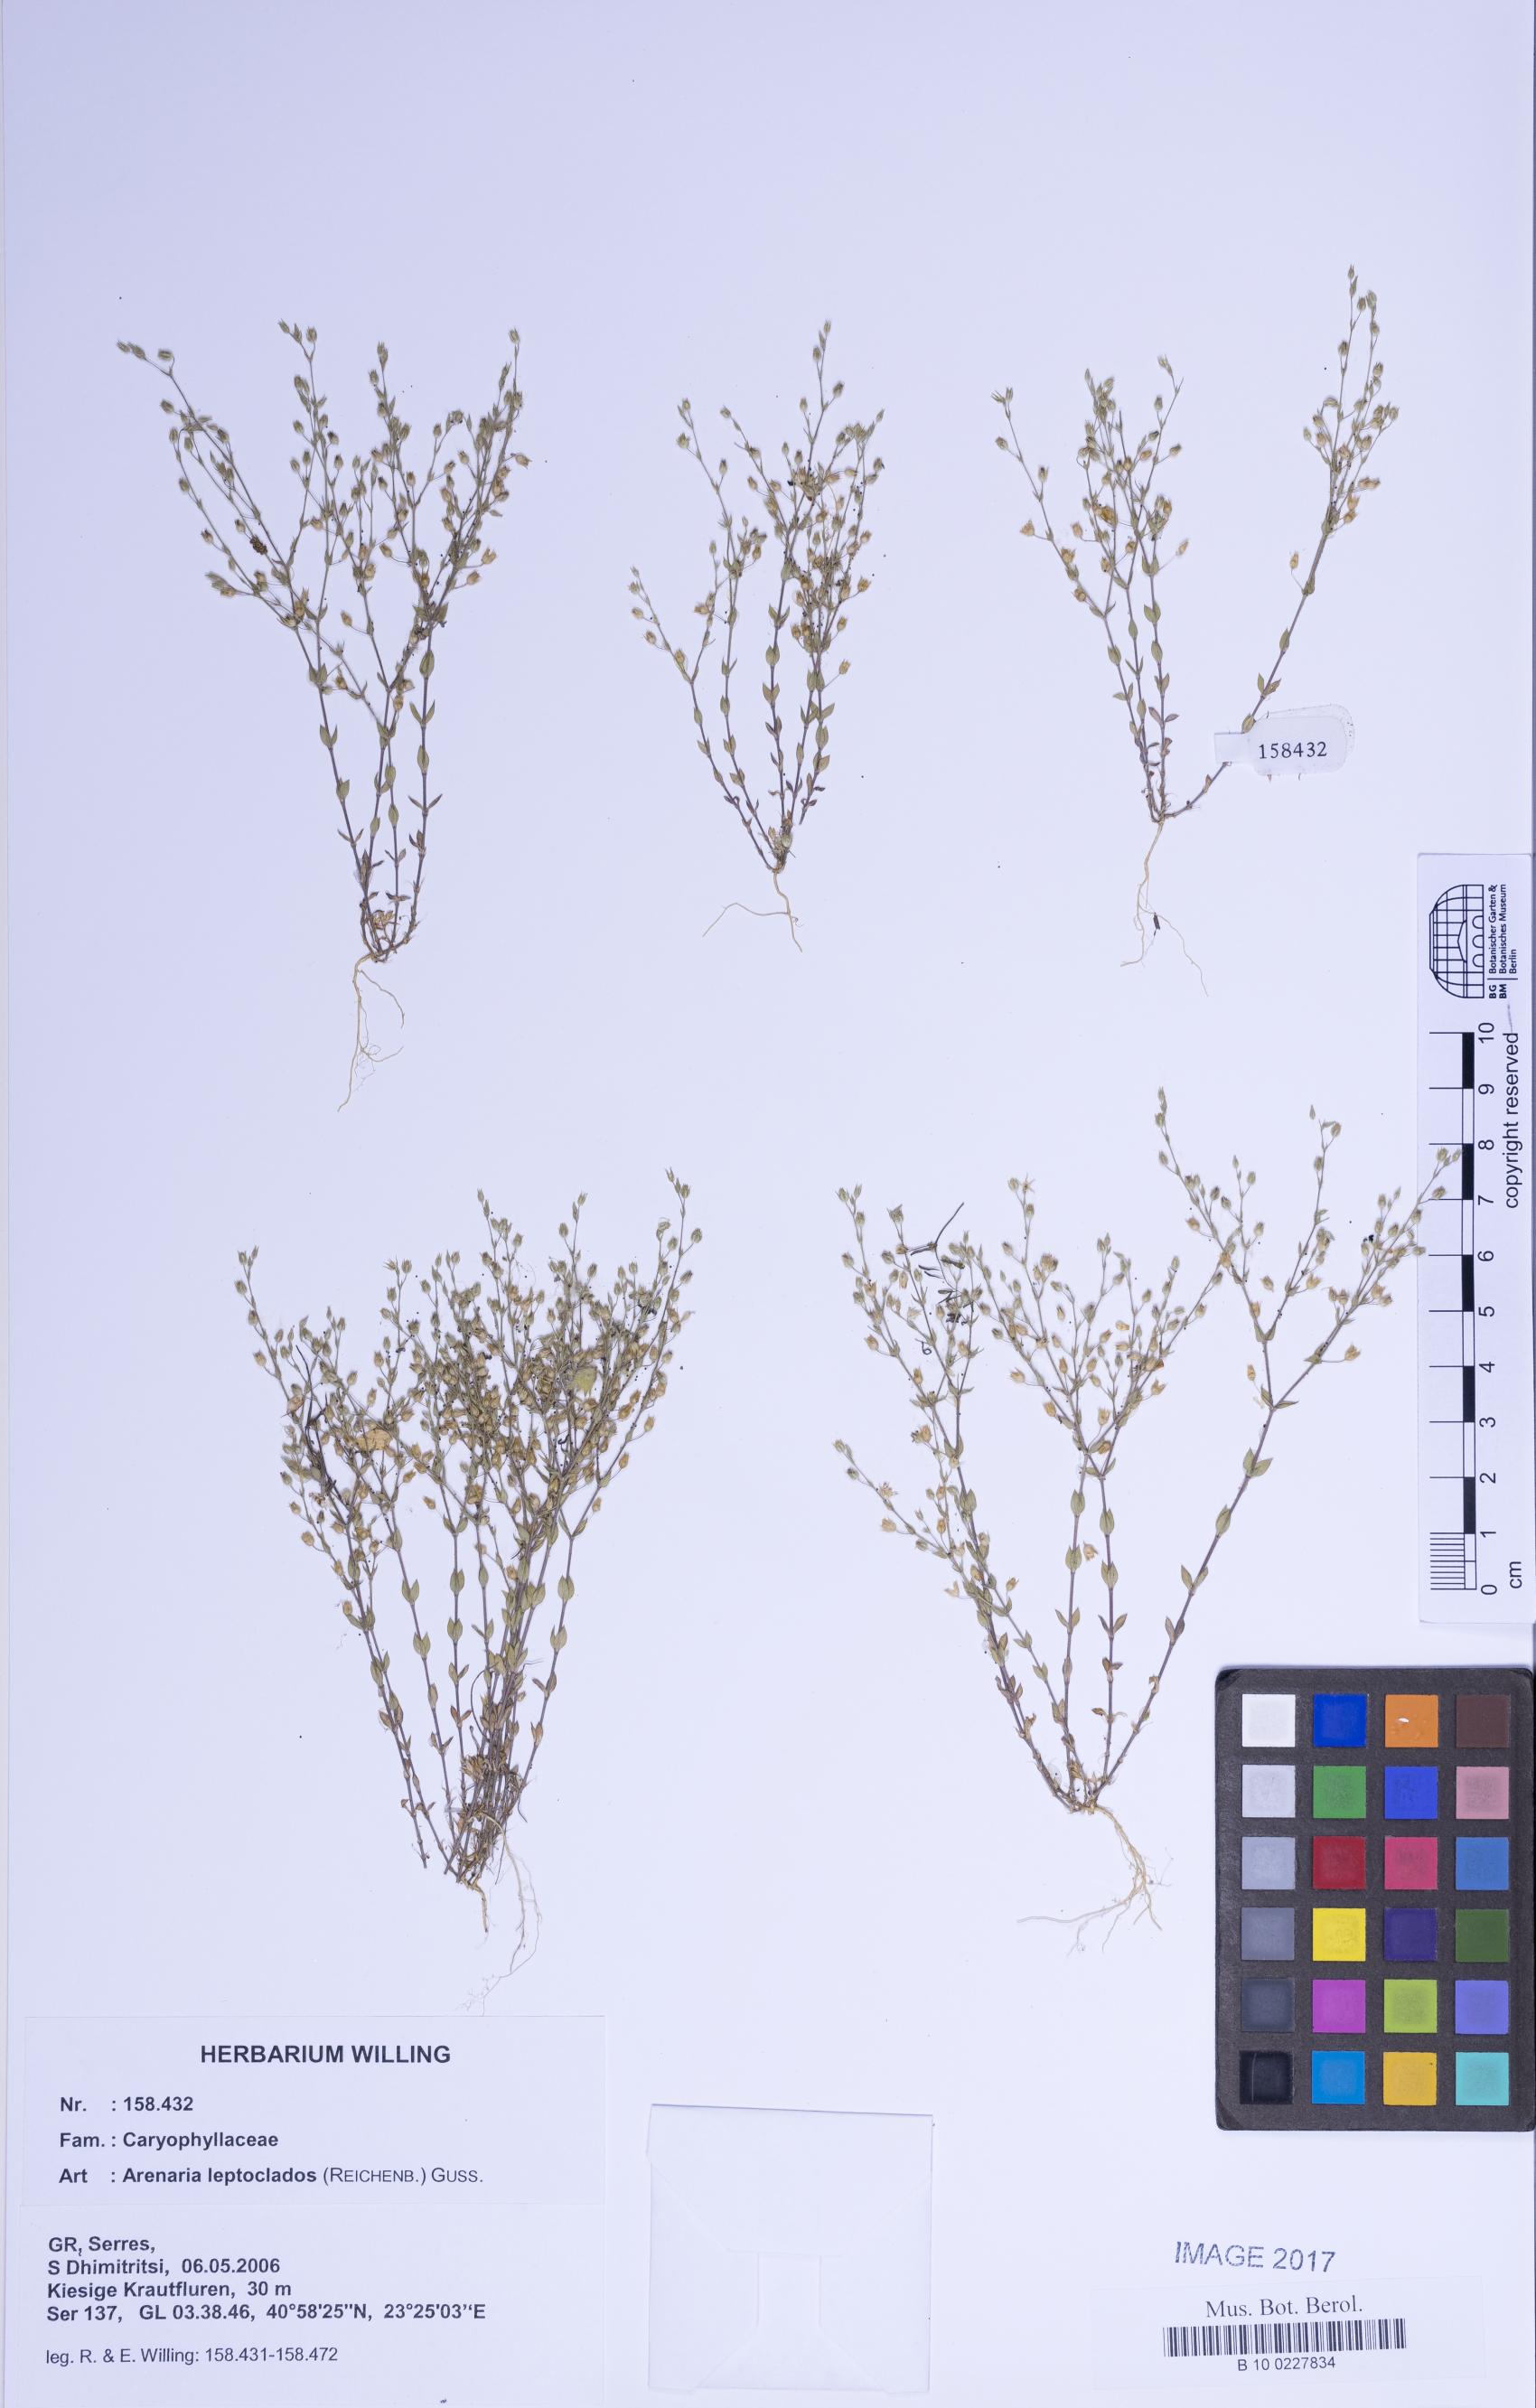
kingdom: Plantae
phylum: Tracheophyta
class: Magnoliopsida
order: Caryophyllales
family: Caryophyllaceae
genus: Arenaria
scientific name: Arenaria leptoclados
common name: Thyme-leaved sandwort
